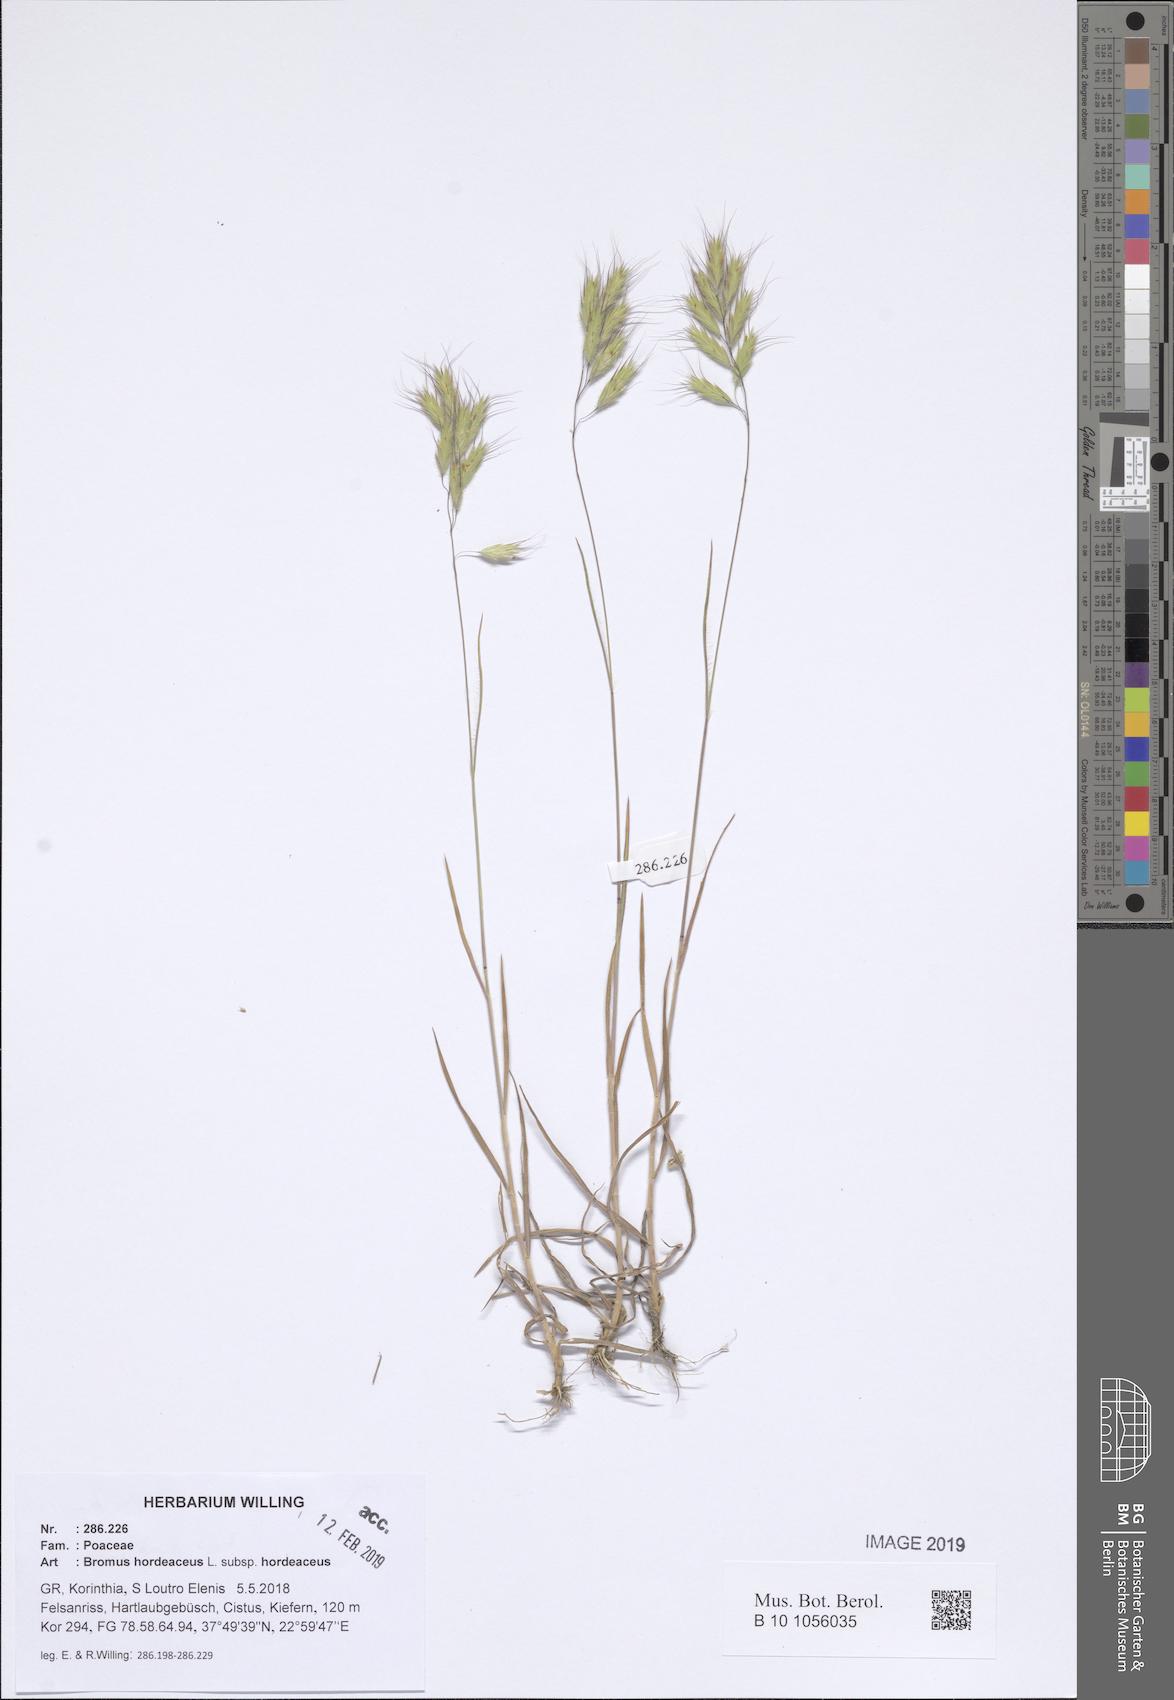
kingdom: Plantae
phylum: Tracheophyta
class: Liliopsida
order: Poales
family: Poaceae
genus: Bromus
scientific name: Bromus hordeaceus
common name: Soft brome
